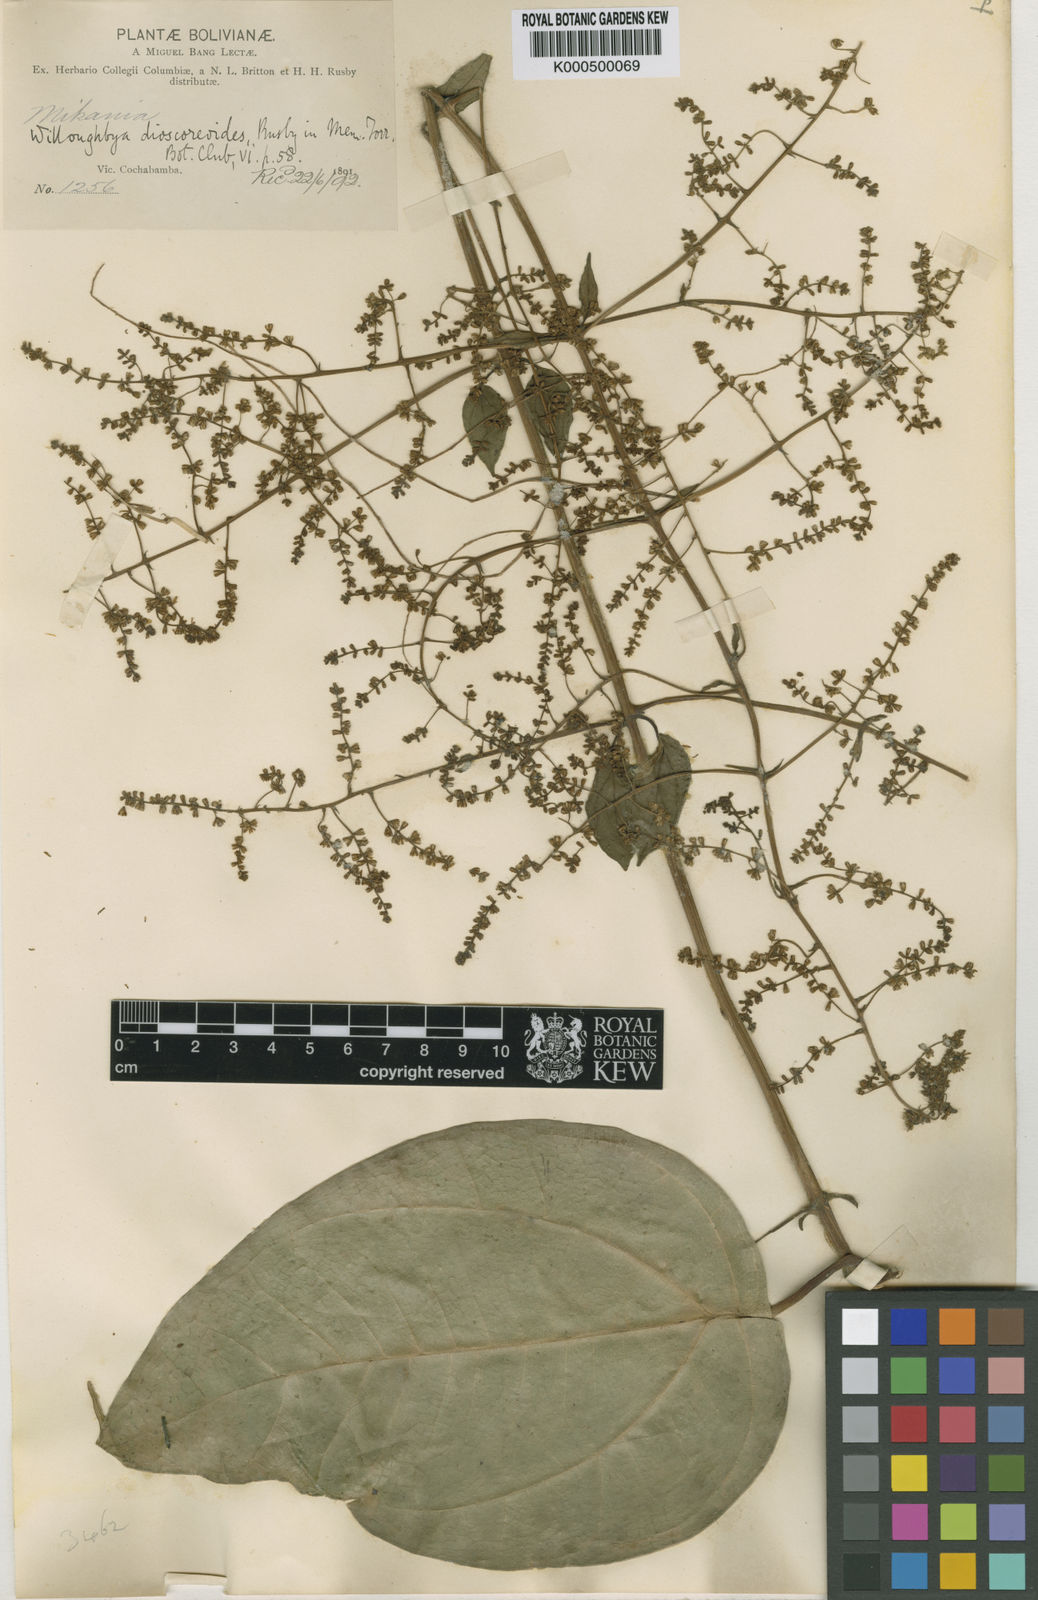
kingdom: Plantae
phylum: Tracheophyta
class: Magnoliopsida
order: Asterales
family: Asteraceae
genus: Mikania
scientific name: Mikania dioscoreoides
